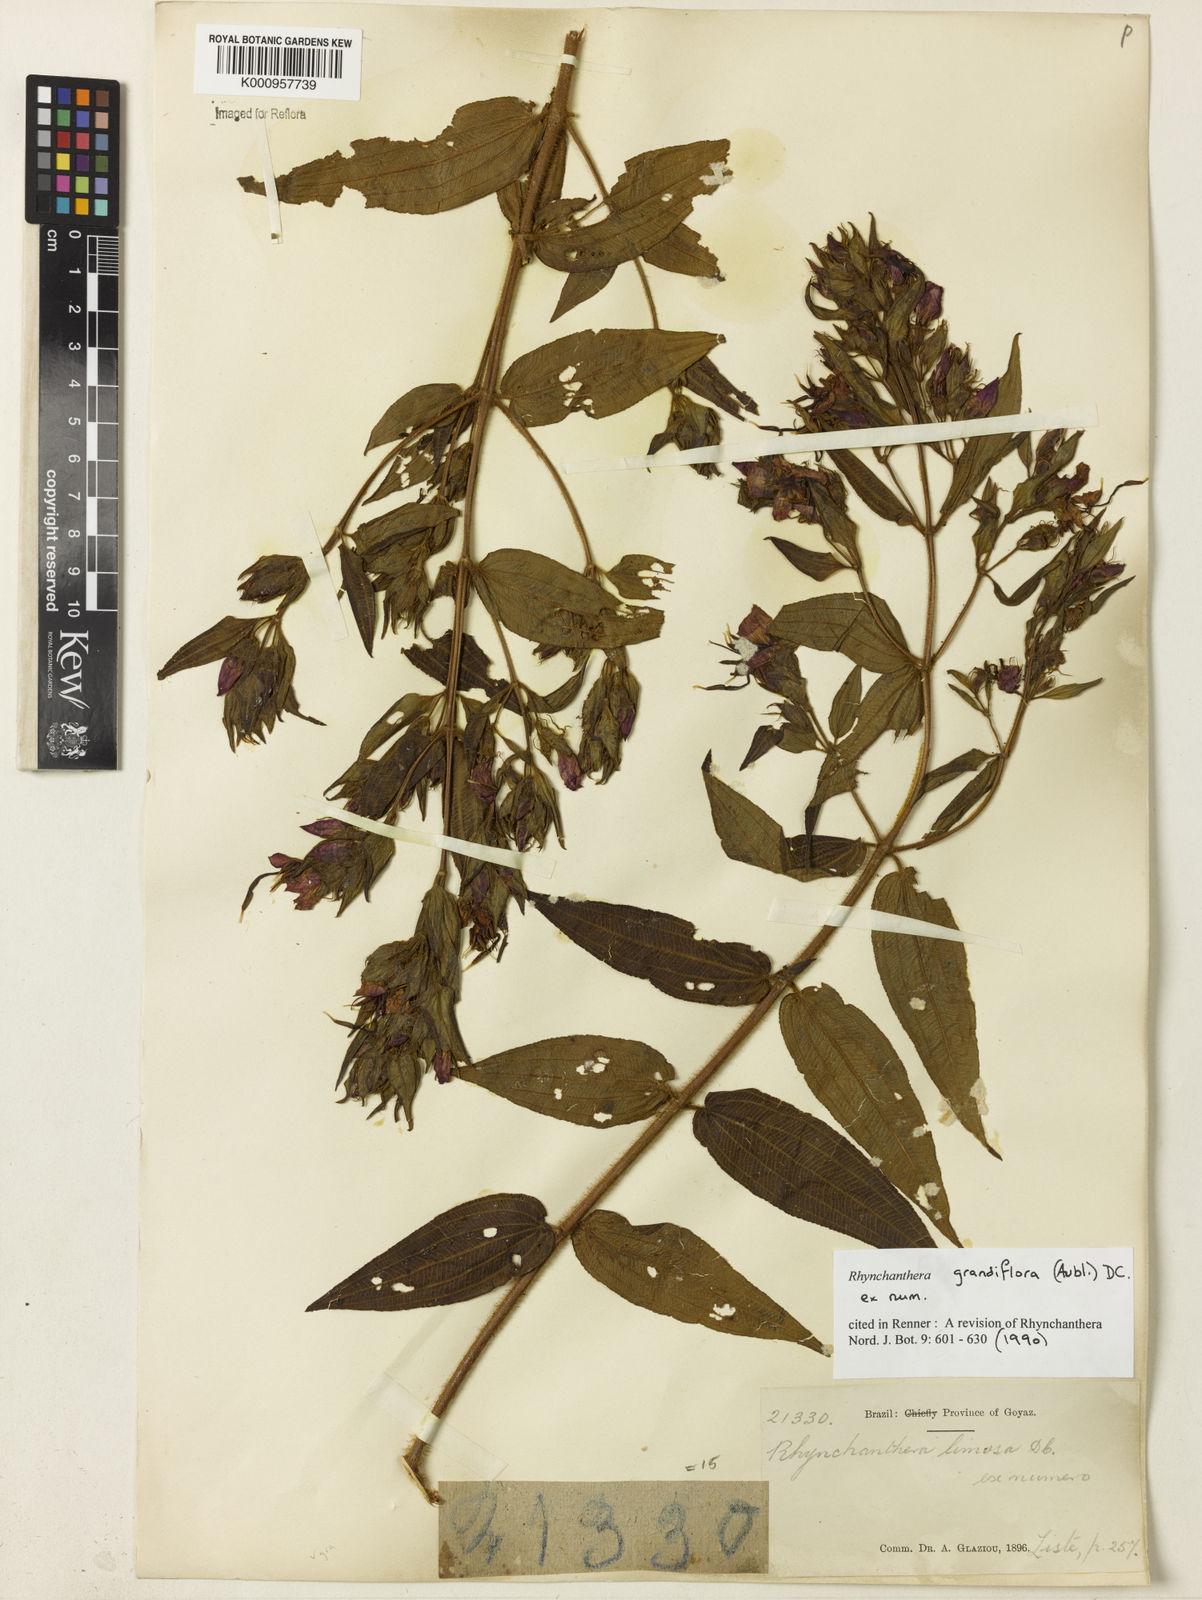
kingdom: Plantae
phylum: Tracheophyta
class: Magnoliopsida
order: Myrtales
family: Melastomataceae
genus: Rhynchanthera
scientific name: Rhynchanthera grandiflora
